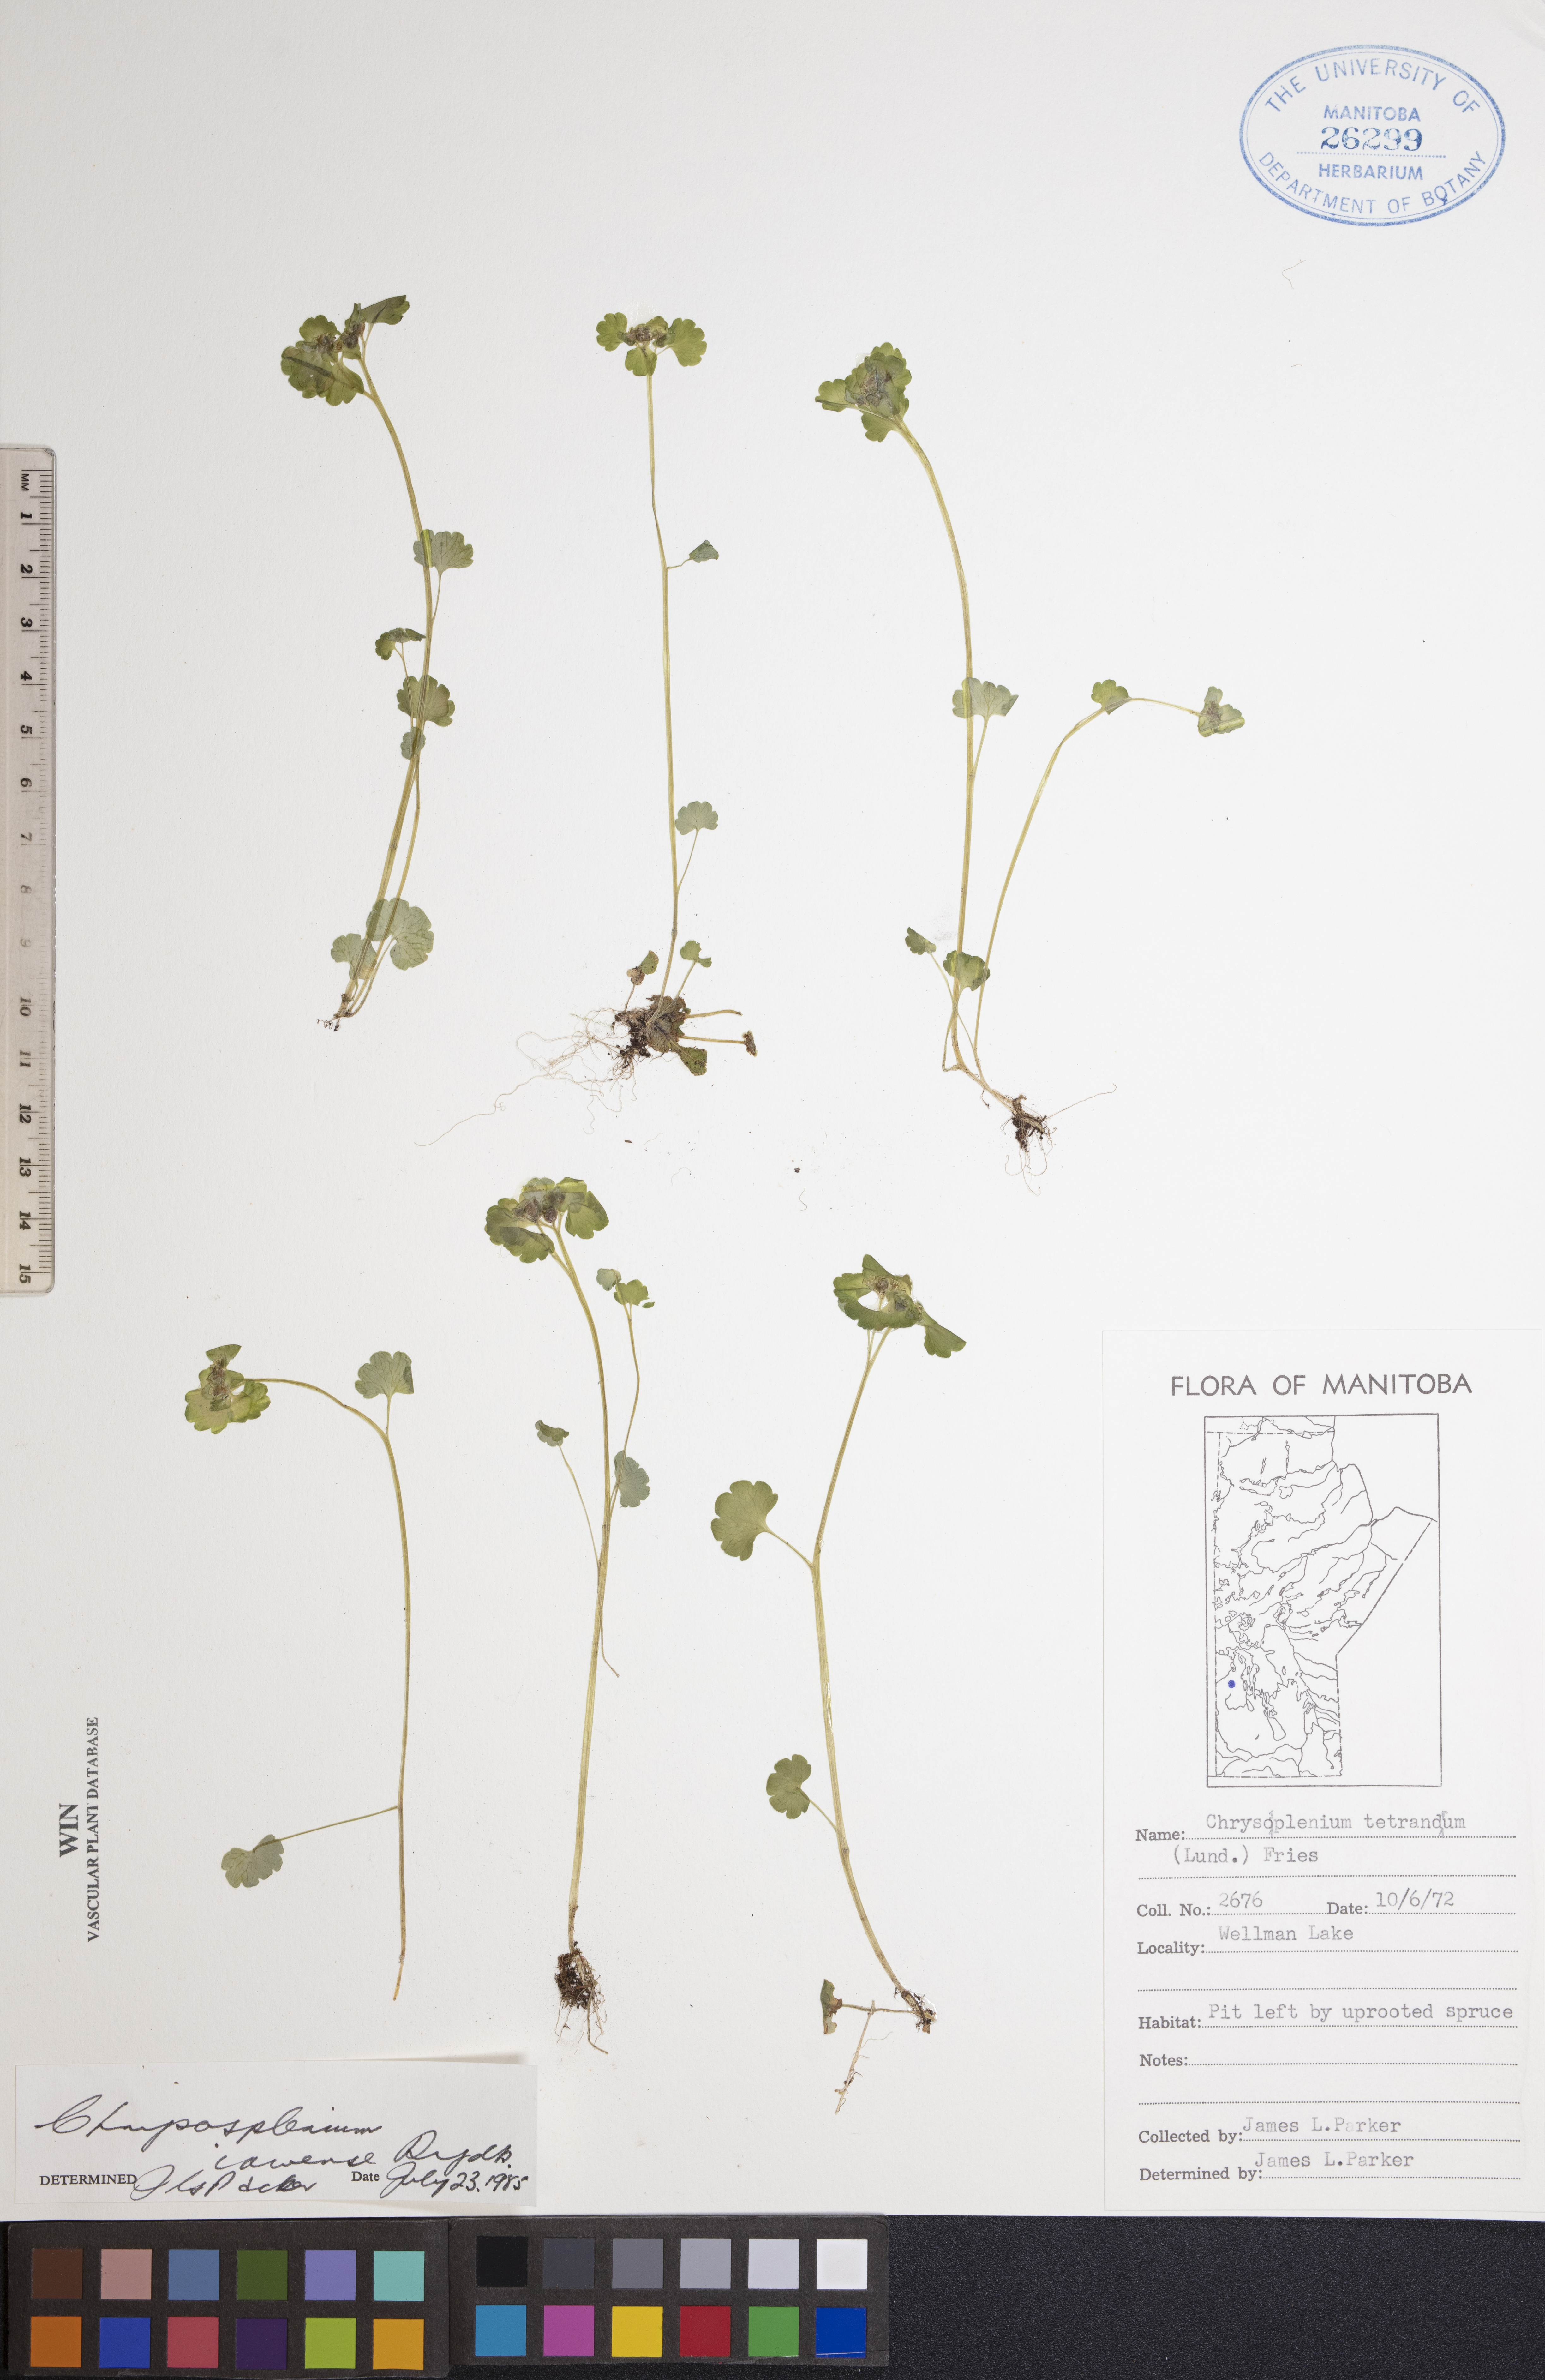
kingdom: Plantae
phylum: Tracheophyta
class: Magnoliopsida
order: Saxifragales
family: Saxifragaceae
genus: Chrysosplenium
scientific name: Chrysosplenium iowense
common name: Iowa golden carpet
